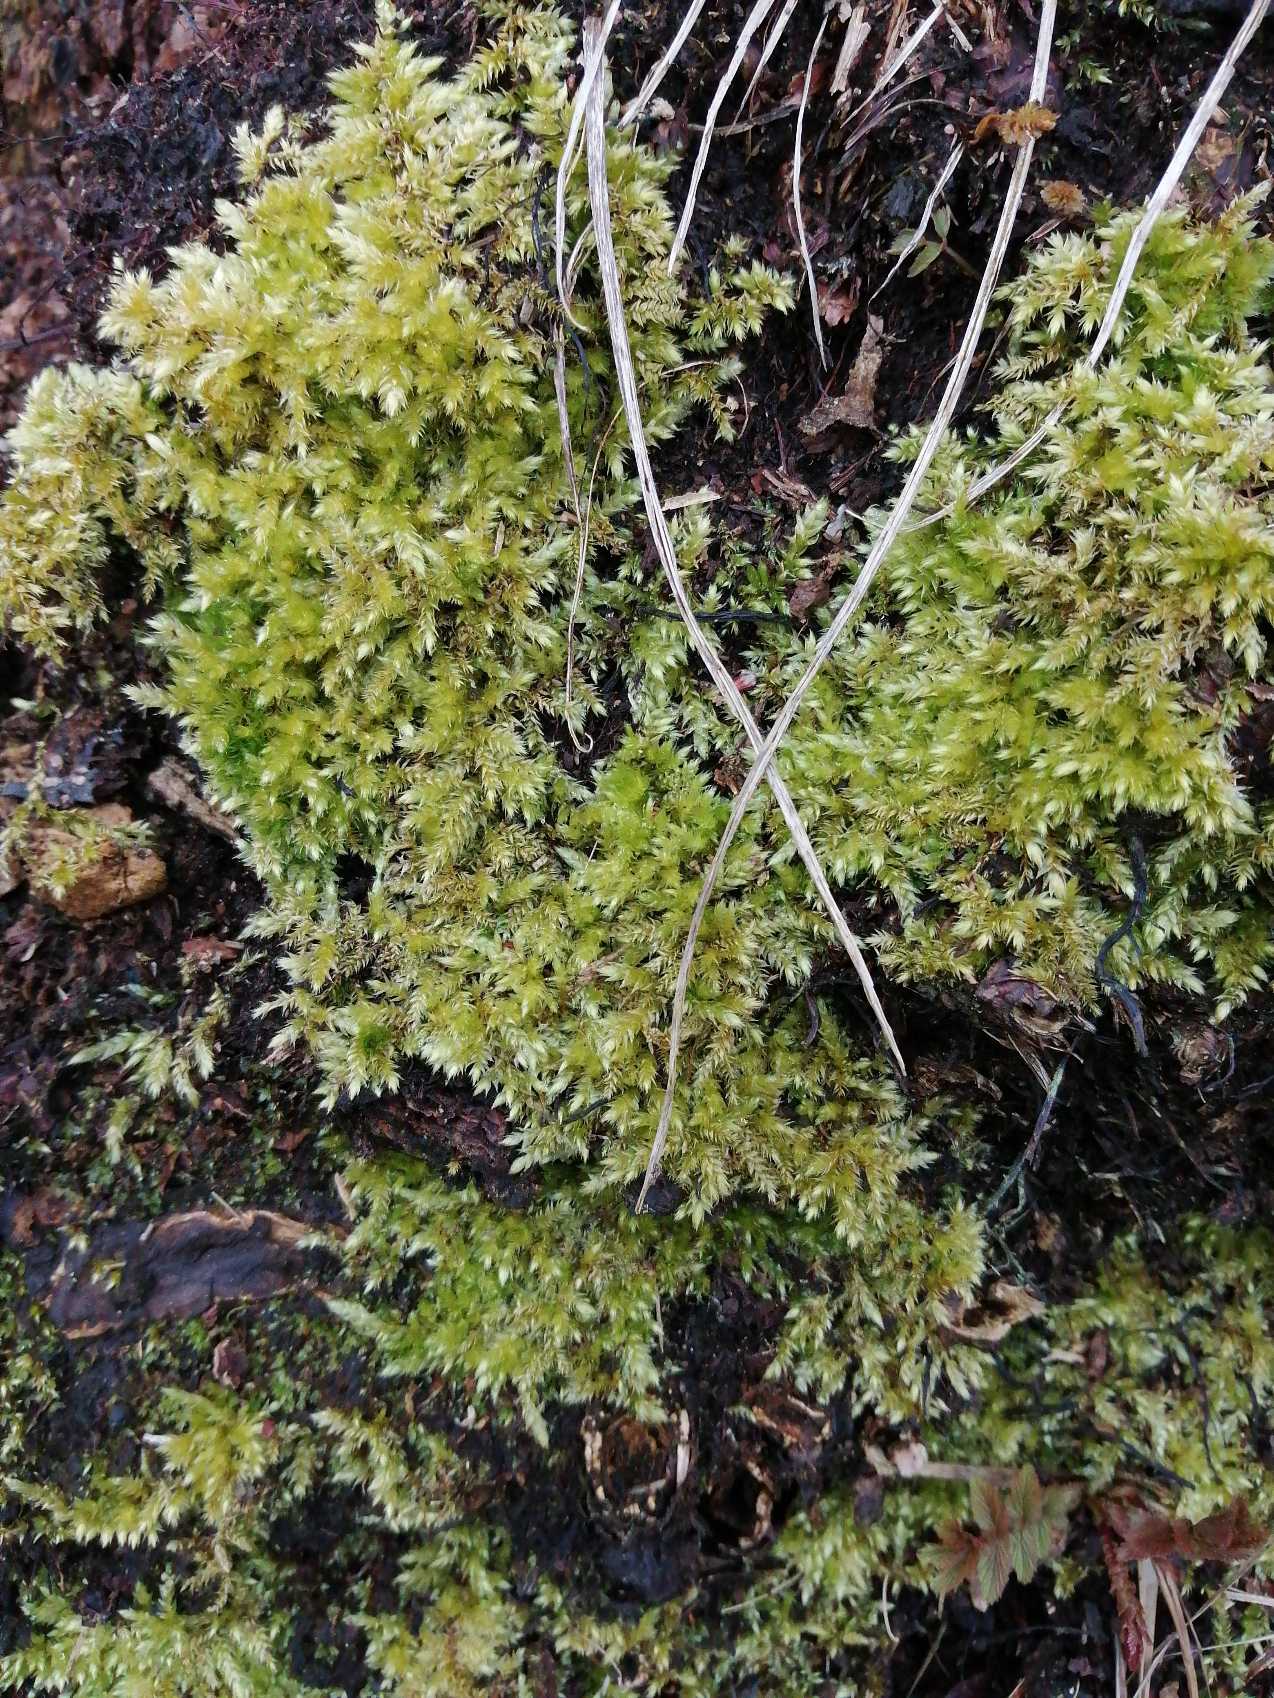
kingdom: Plantae
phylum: Bryophyta
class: Bryopsida
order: Hypnales
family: Brachytheciaceae
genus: Brachythecium
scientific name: Brachythecium rutabulum
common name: Almindelig kortkapsel
